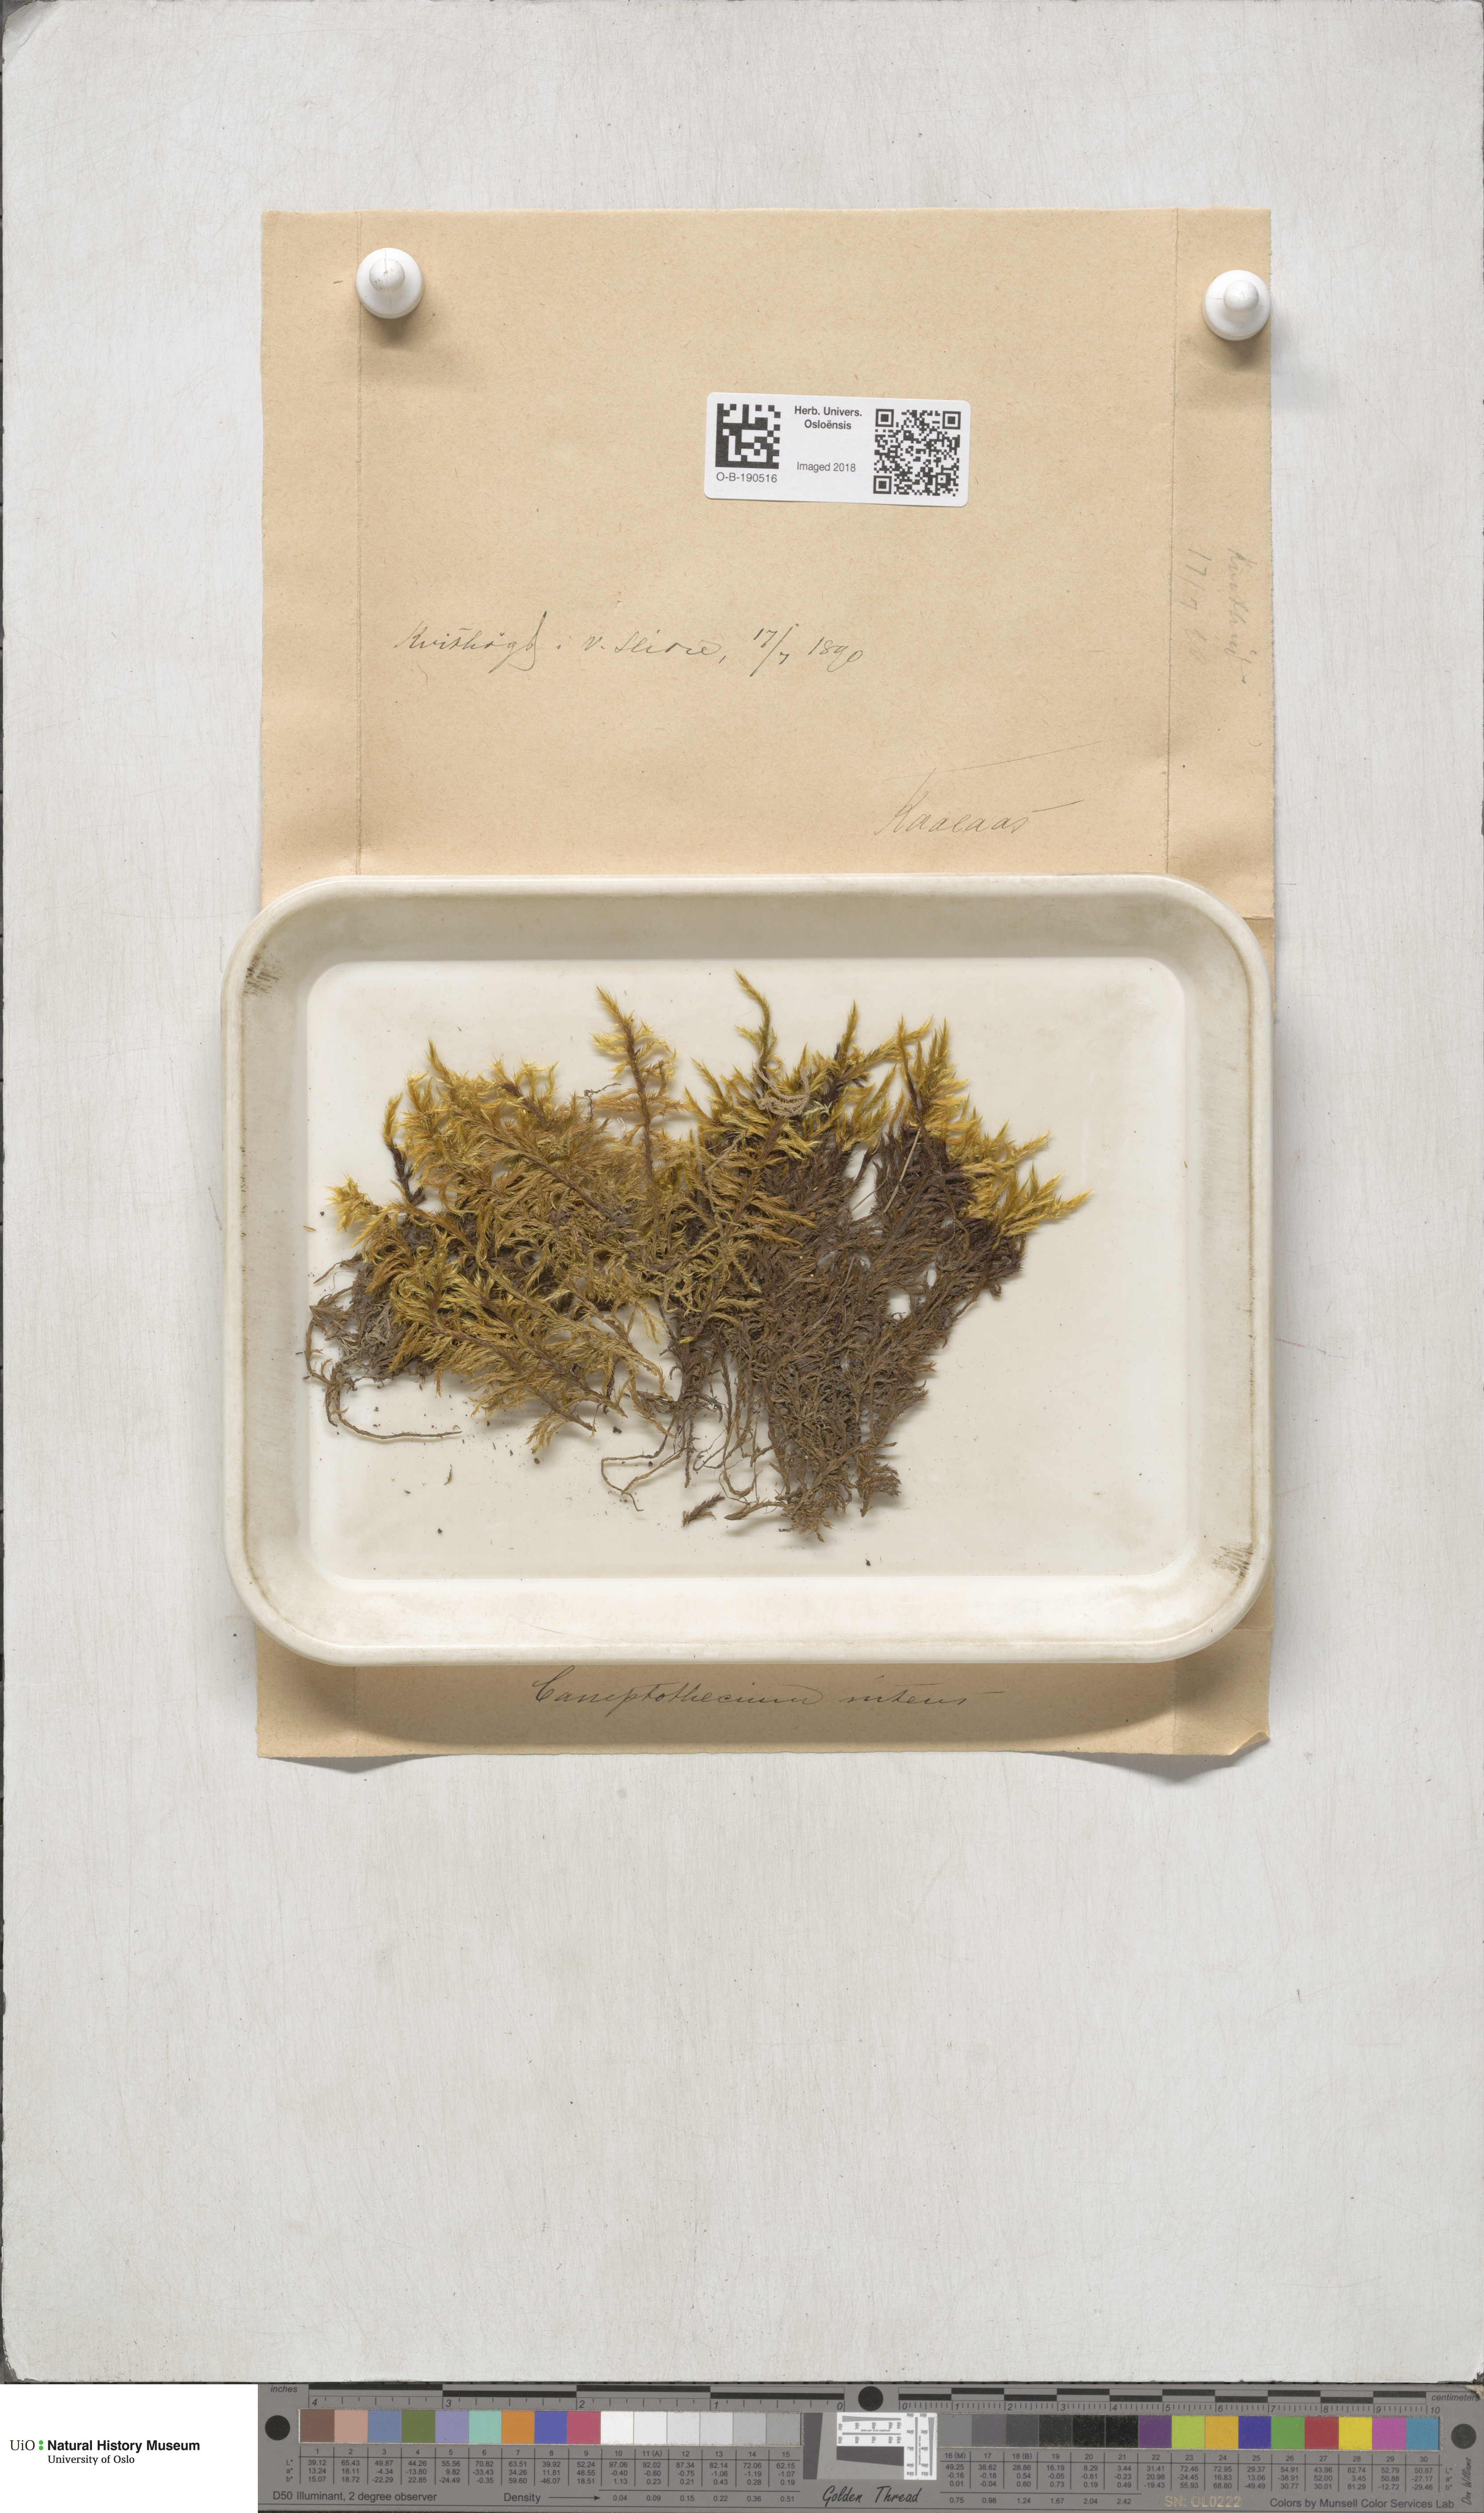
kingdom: Plantae
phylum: Bryophyta
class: Bryopsida
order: Hypnales
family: Amblystegiaceae
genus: Tomentypnum
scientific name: Tomentypnum nitens
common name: Golden fuzzy fen moss
